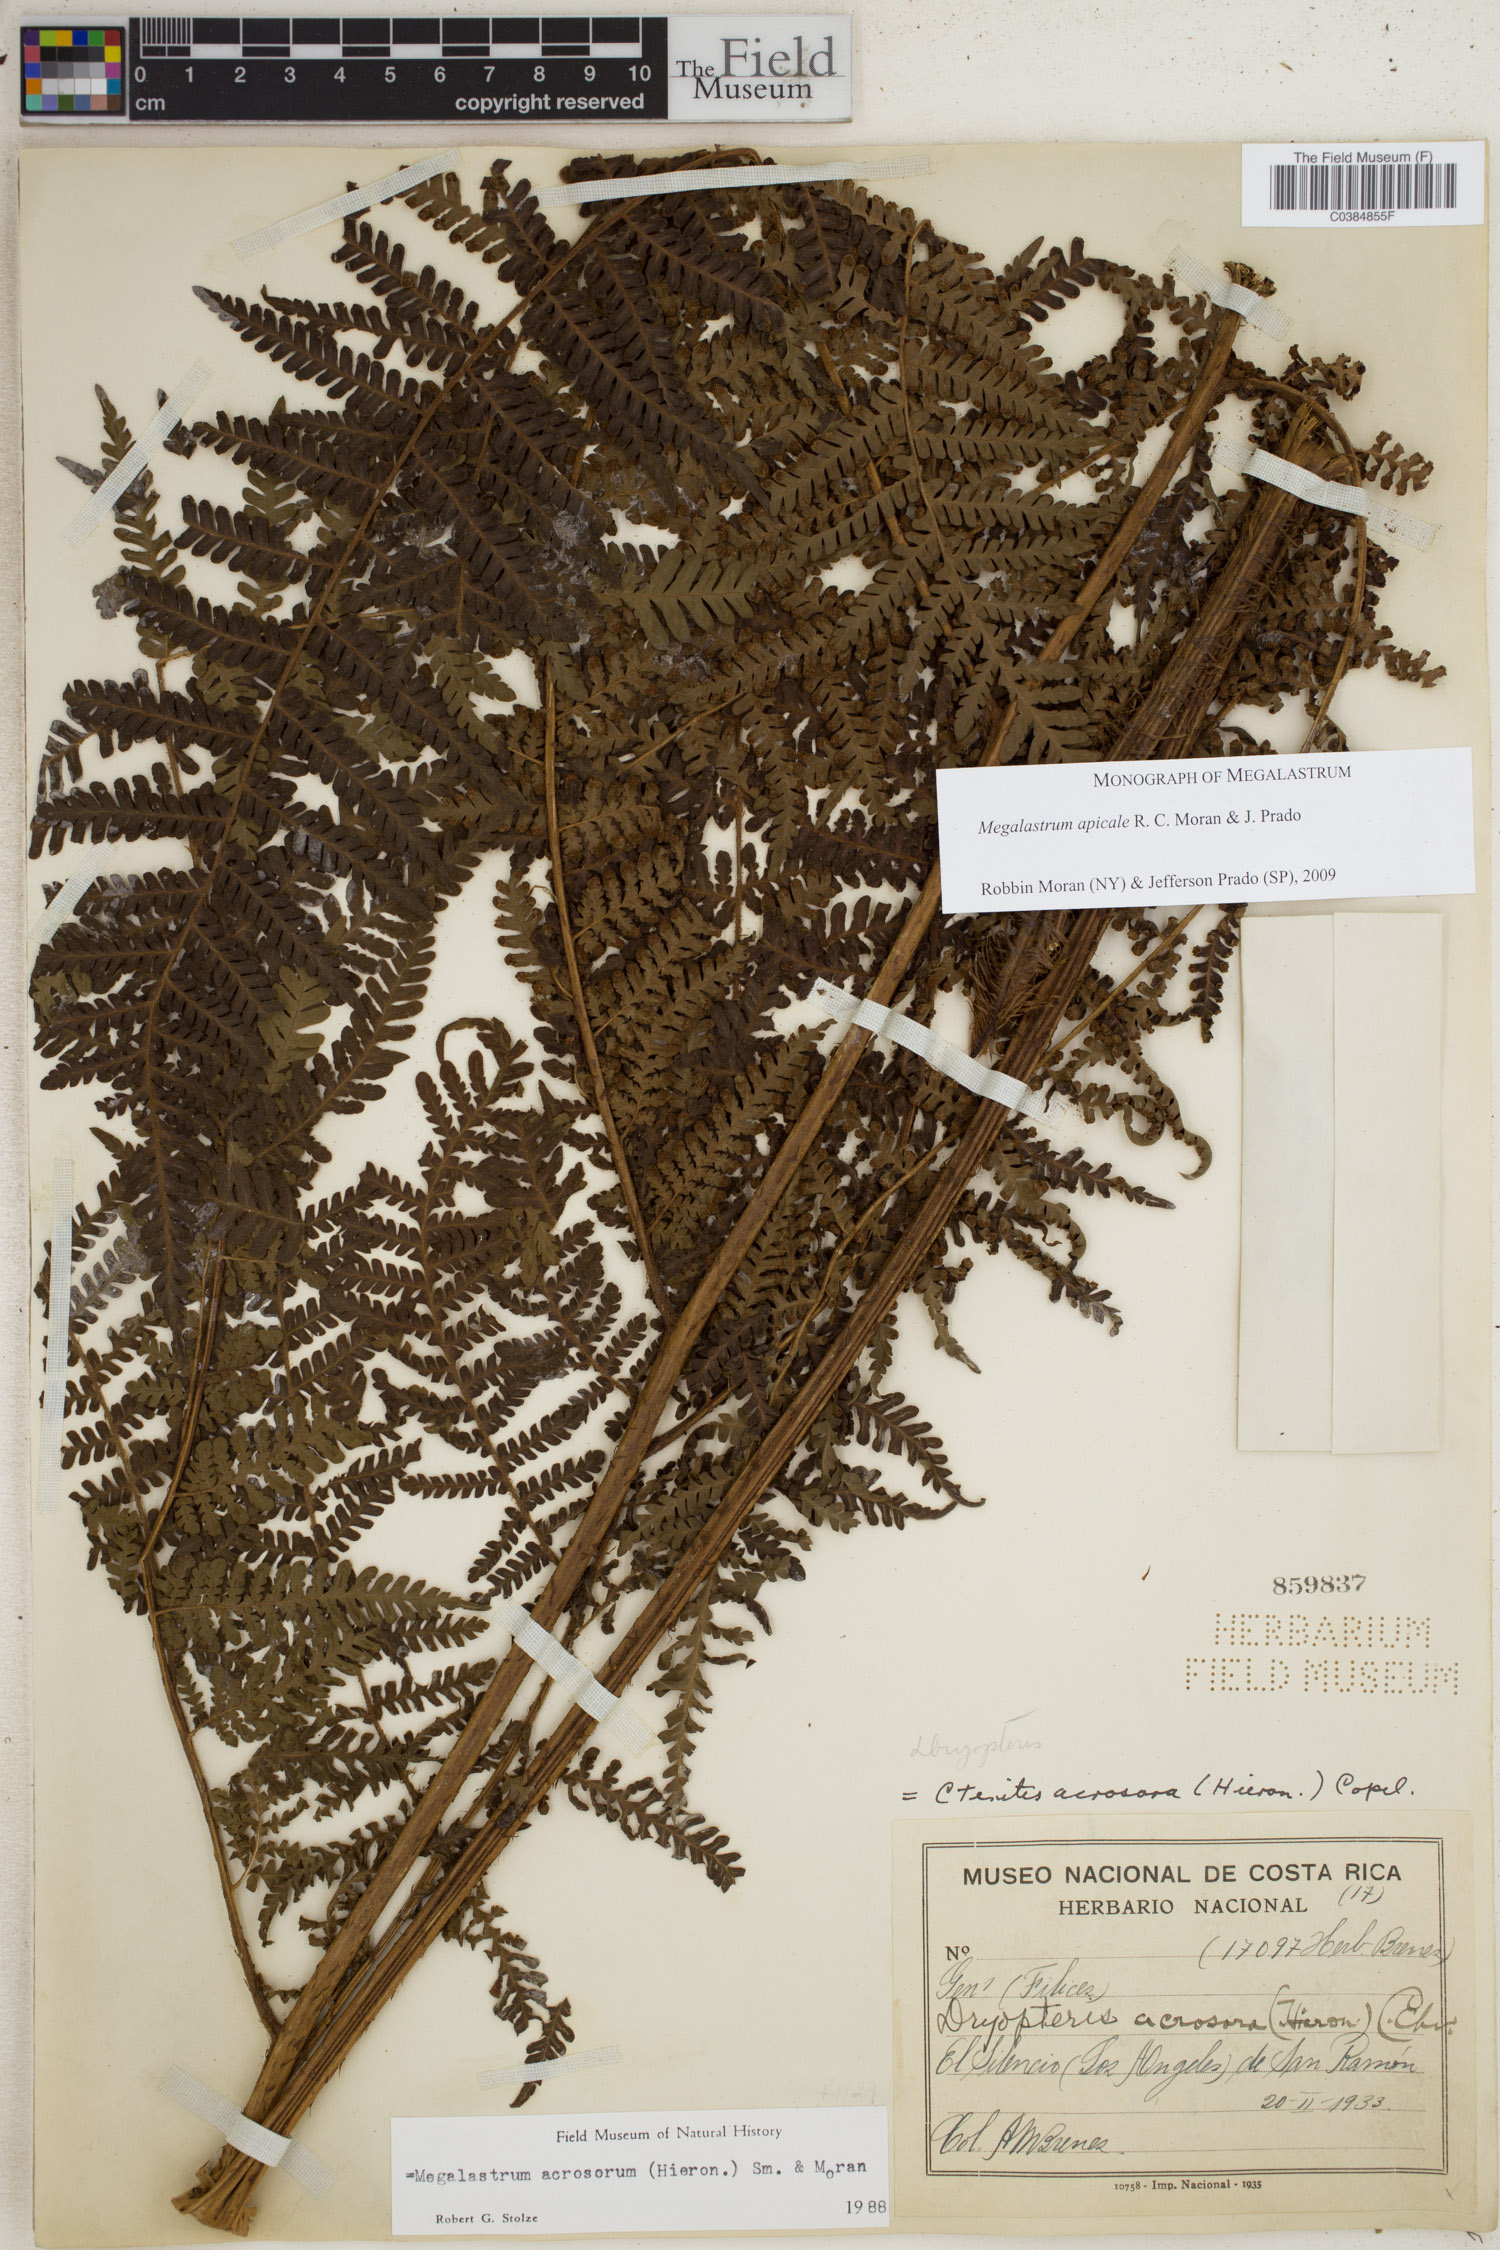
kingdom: Plantae
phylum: Tracheophyta
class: Polypodiopsida
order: Polypodiales
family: Dryopteridaceae
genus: Megalastrum
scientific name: Megalastrum apicale
